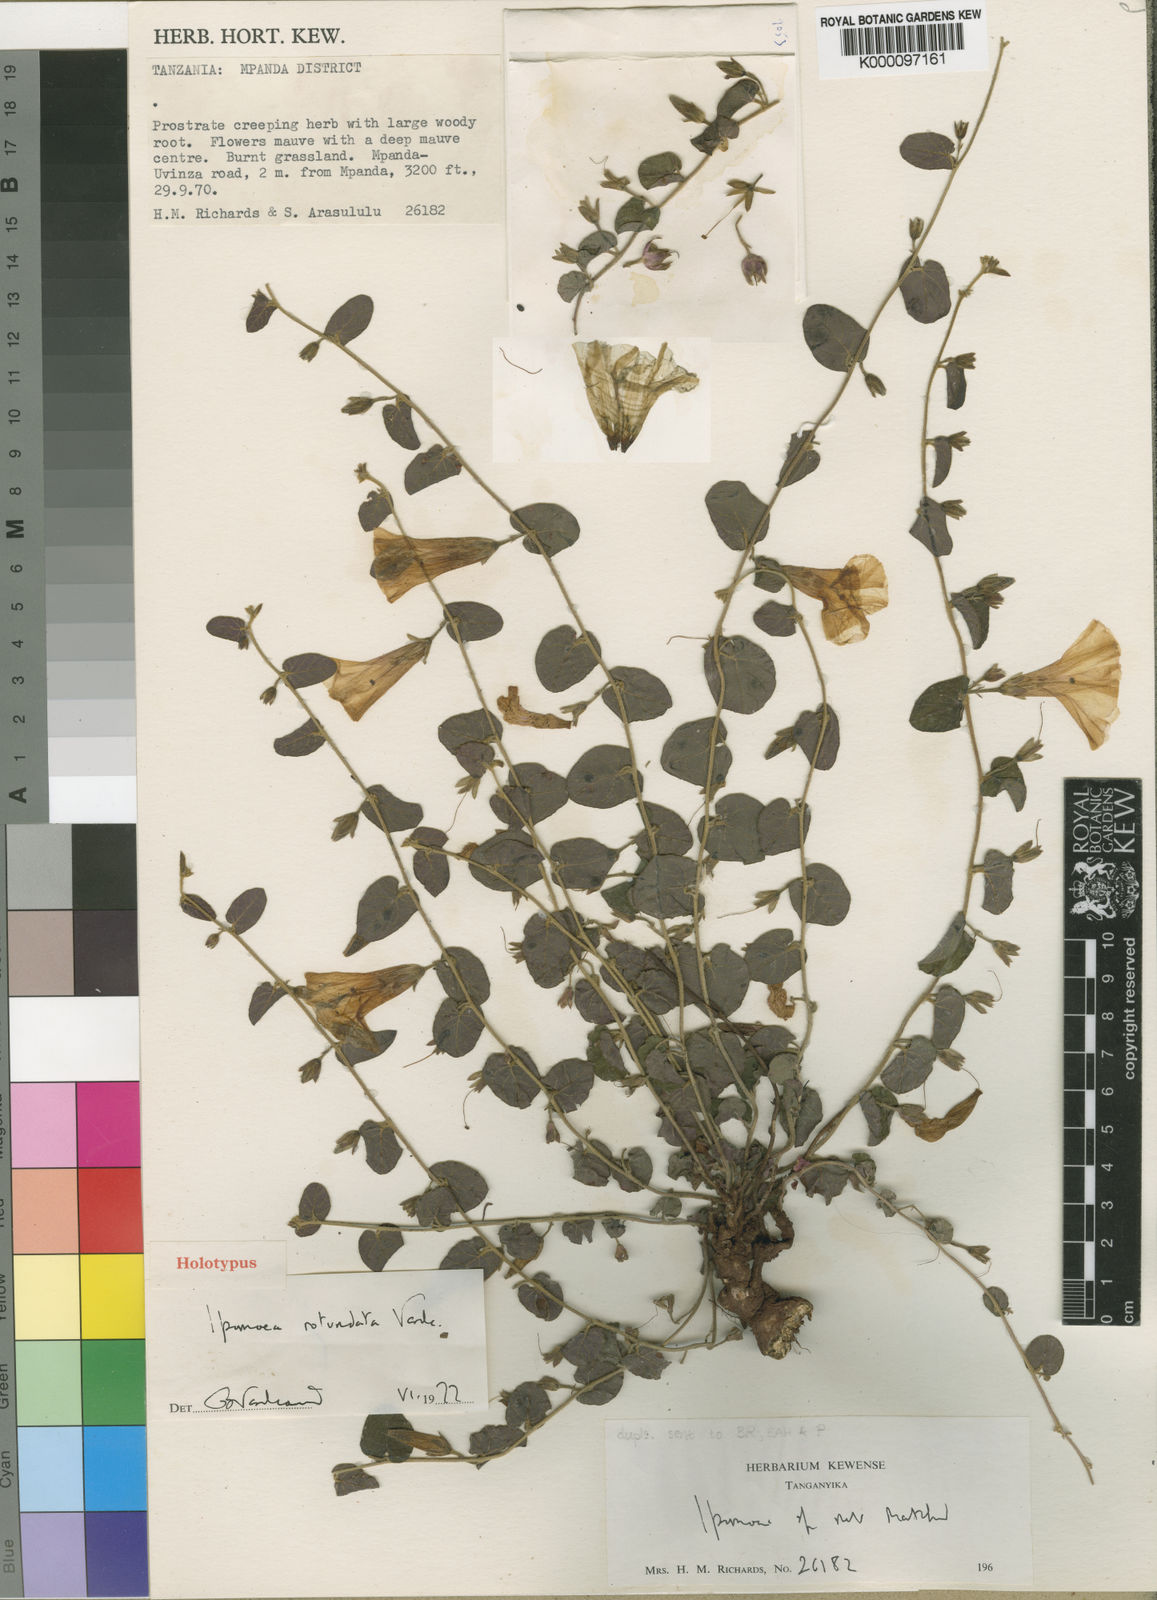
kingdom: Plantae
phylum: Tracheophyta
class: Magnoliopsida
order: Solanales
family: Convolvulaceae
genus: Ipomoea
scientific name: Ipomoea rotundata
